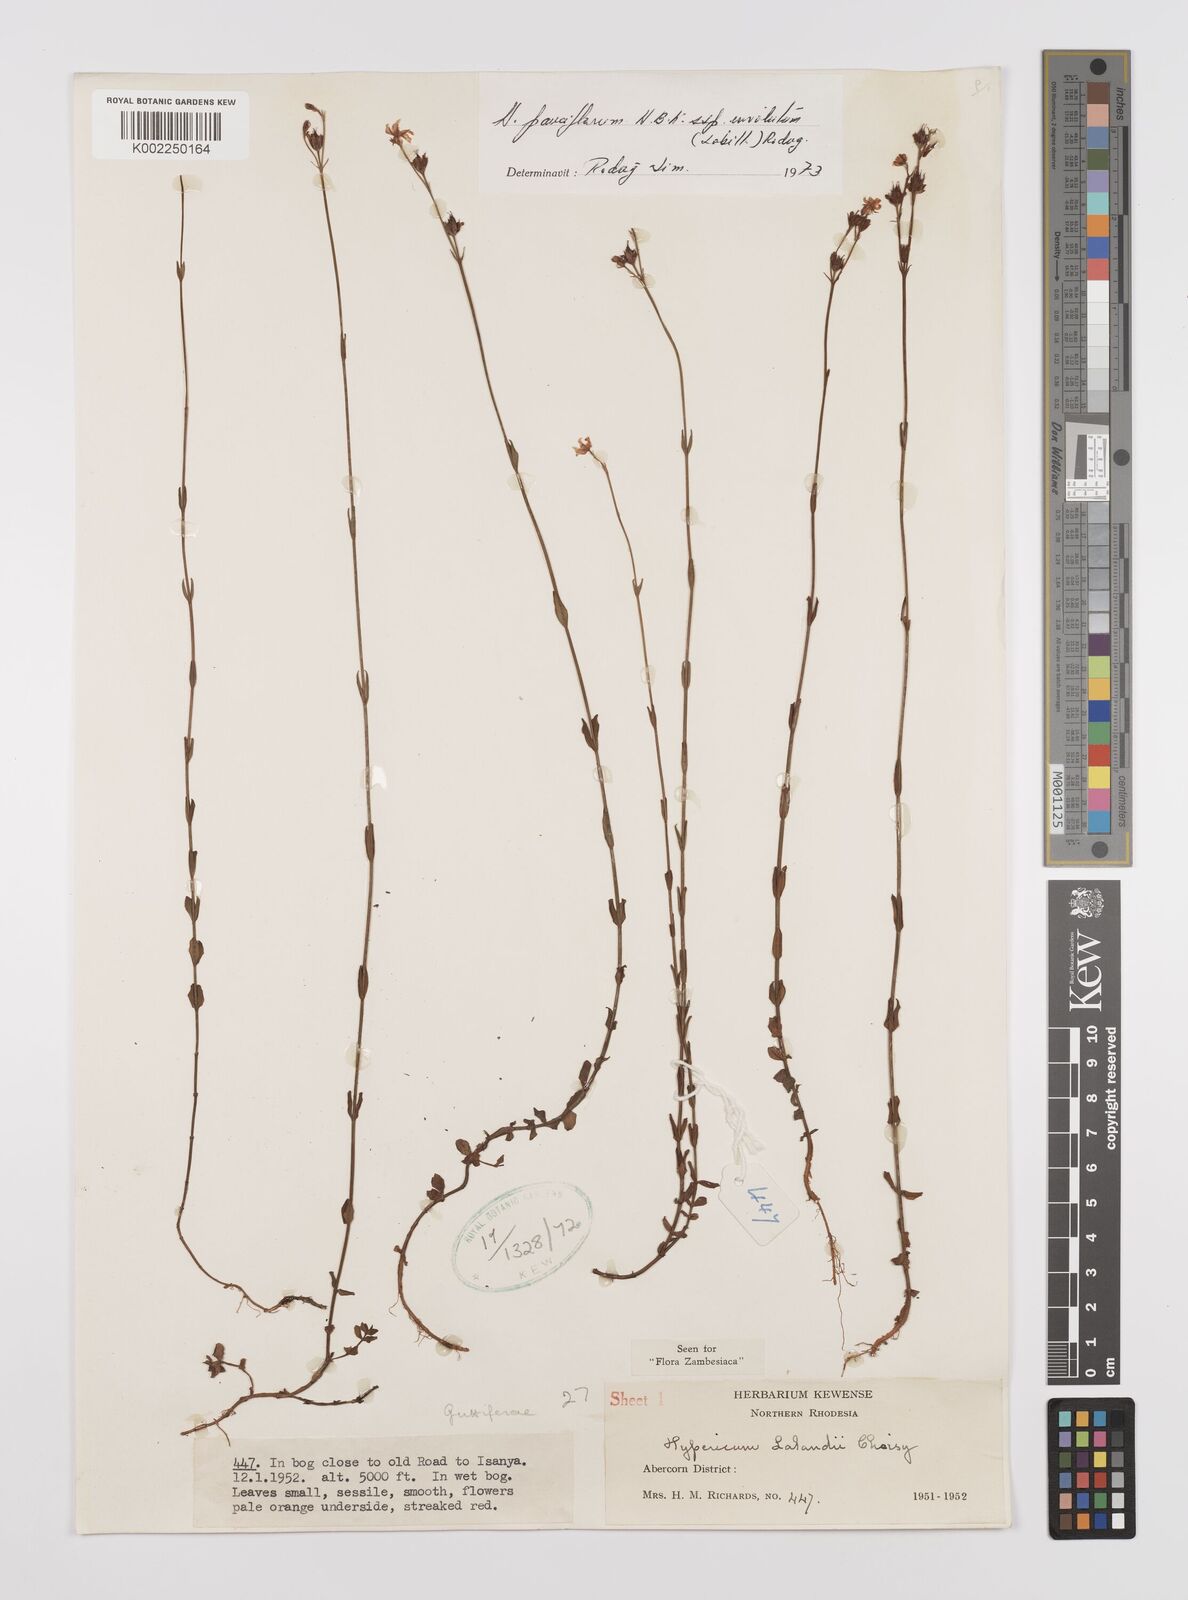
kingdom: Plantae
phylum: Tracheophyta
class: Magnoliopsida
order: Malpighiales
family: Hypericaceae
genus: Hypericum
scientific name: Hypericum lalandii
